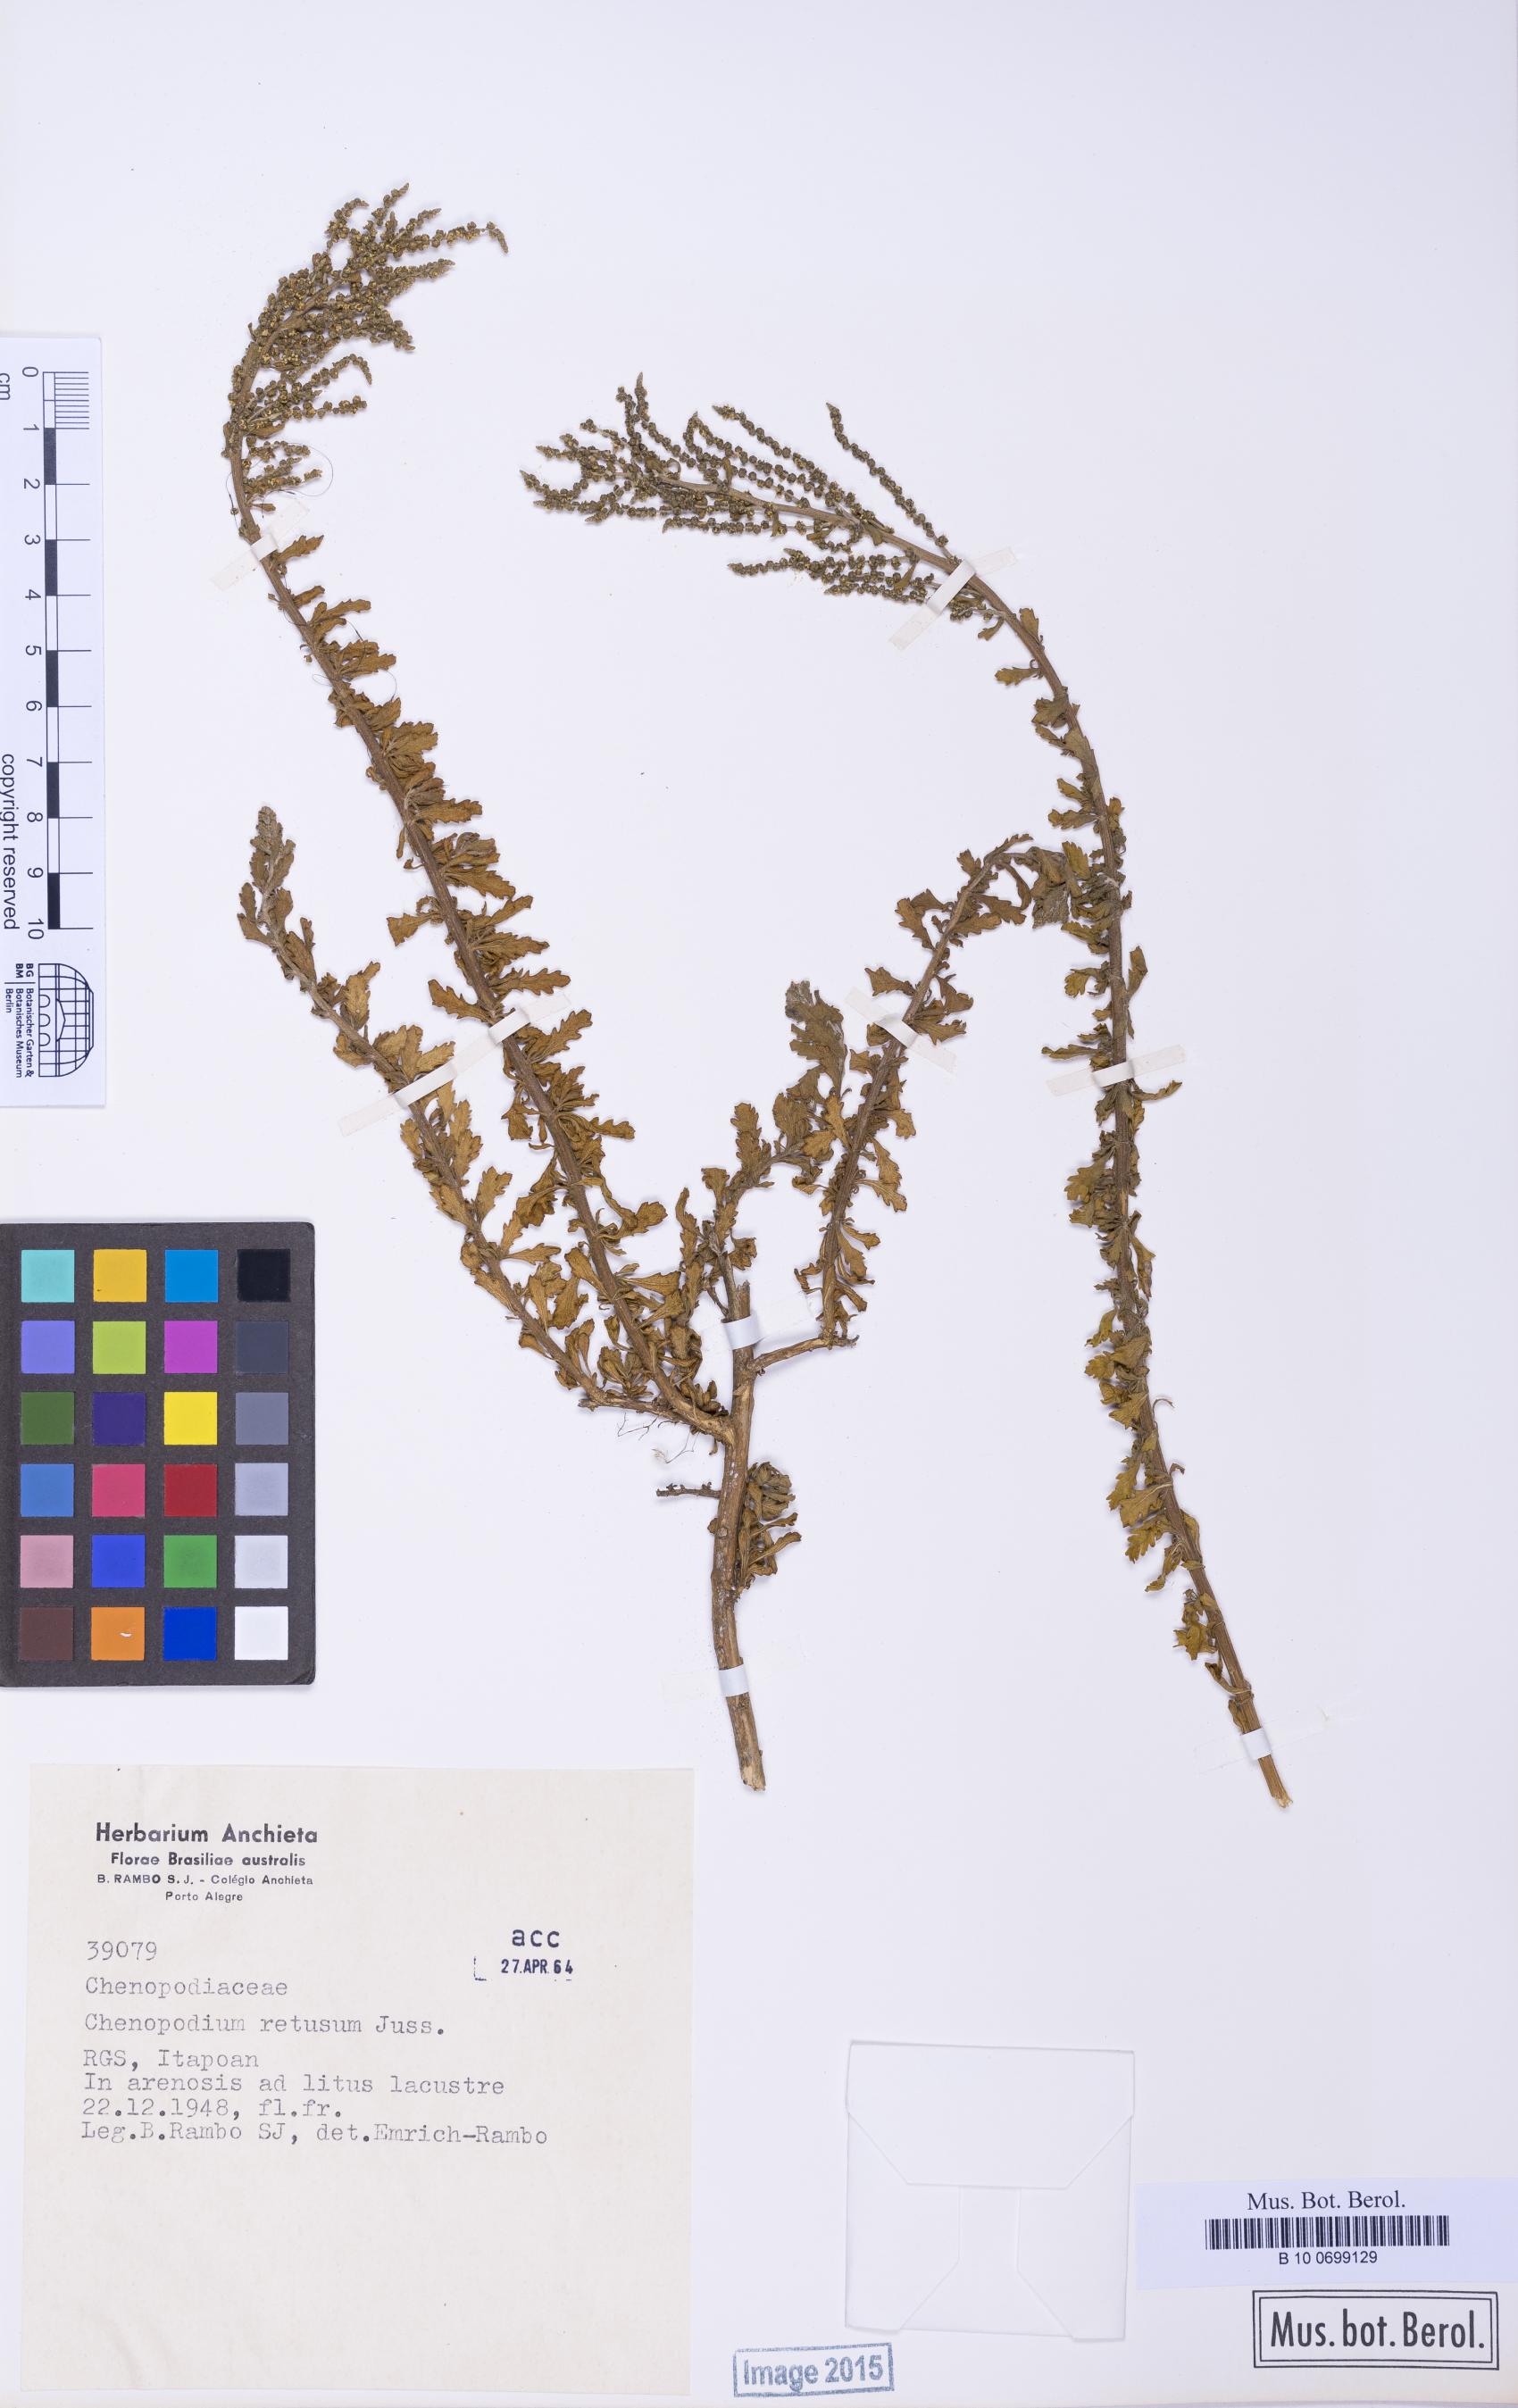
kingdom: Plantae
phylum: Tracheophyta
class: Magnoliopsida
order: Caryophyllales
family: Amaranthaceae
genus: Dysphania
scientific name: Dysphania retusa
